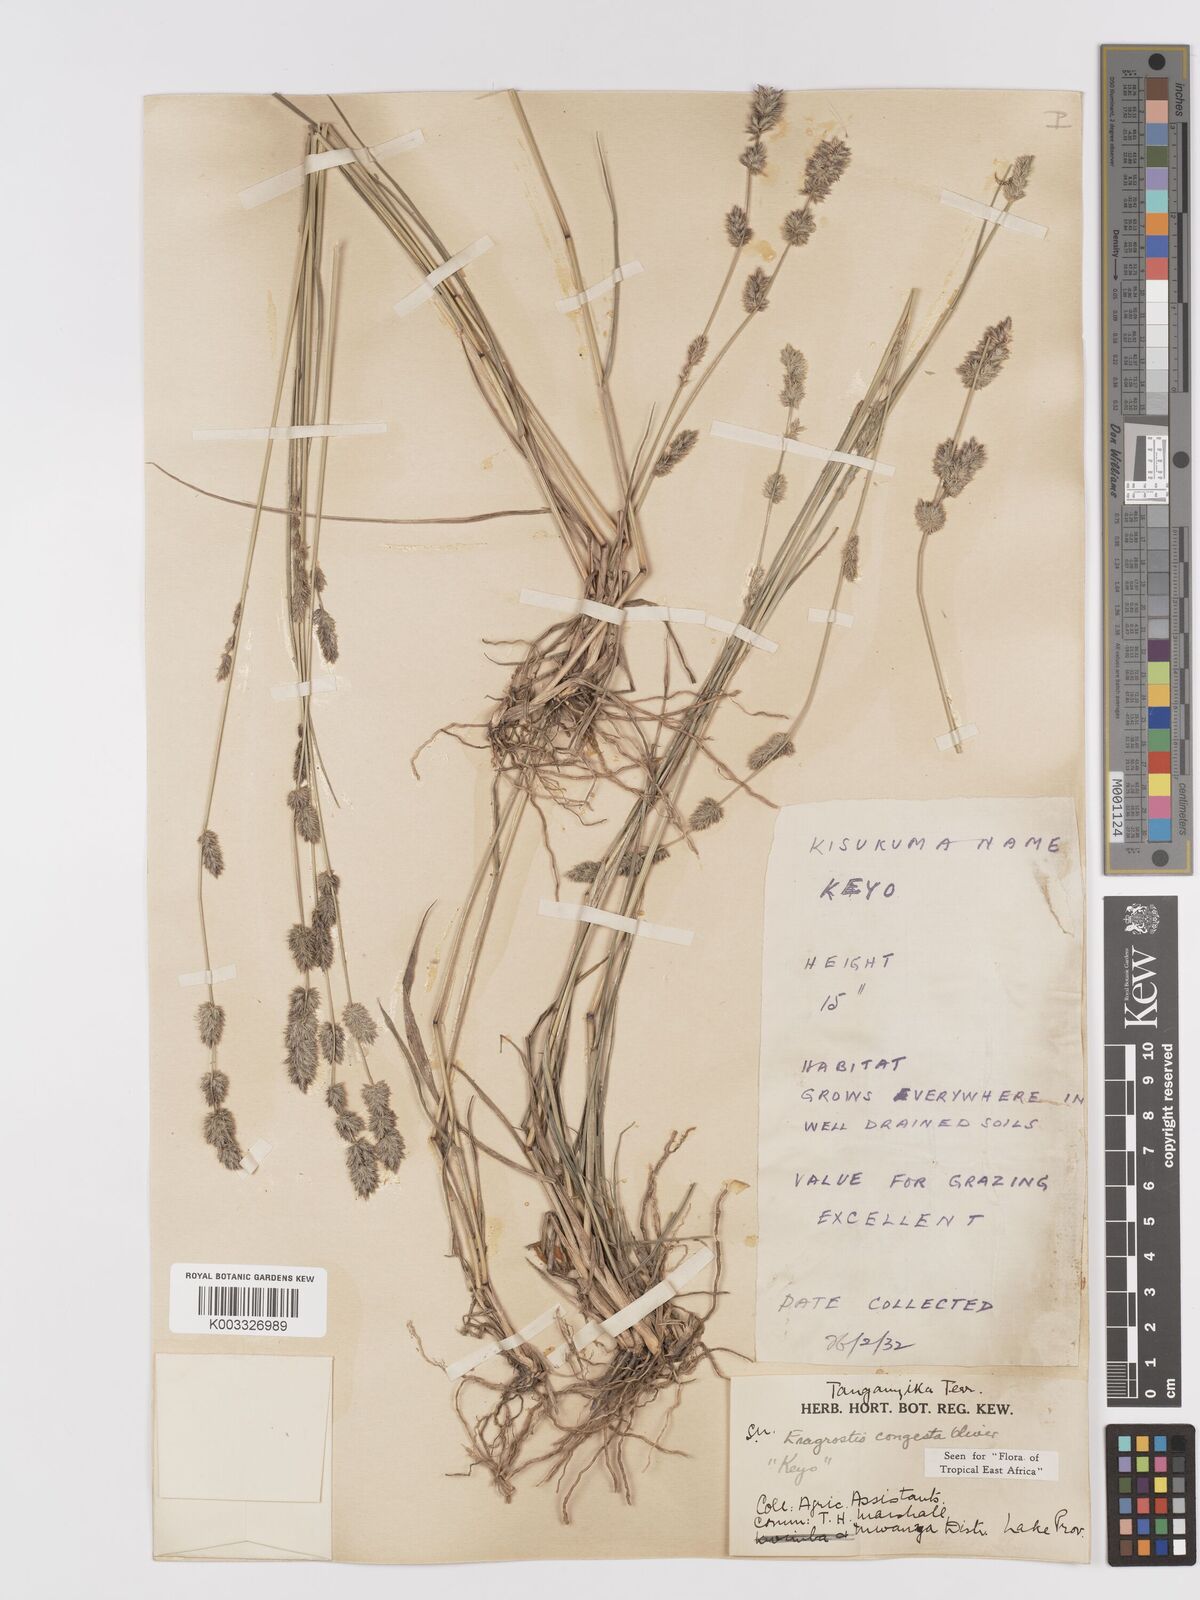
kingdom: Plantae
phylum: Tracheophyta
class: Liliopsida
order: Poales
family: Poaceae
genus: Eragrostis
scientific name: Eragrostis congesta
